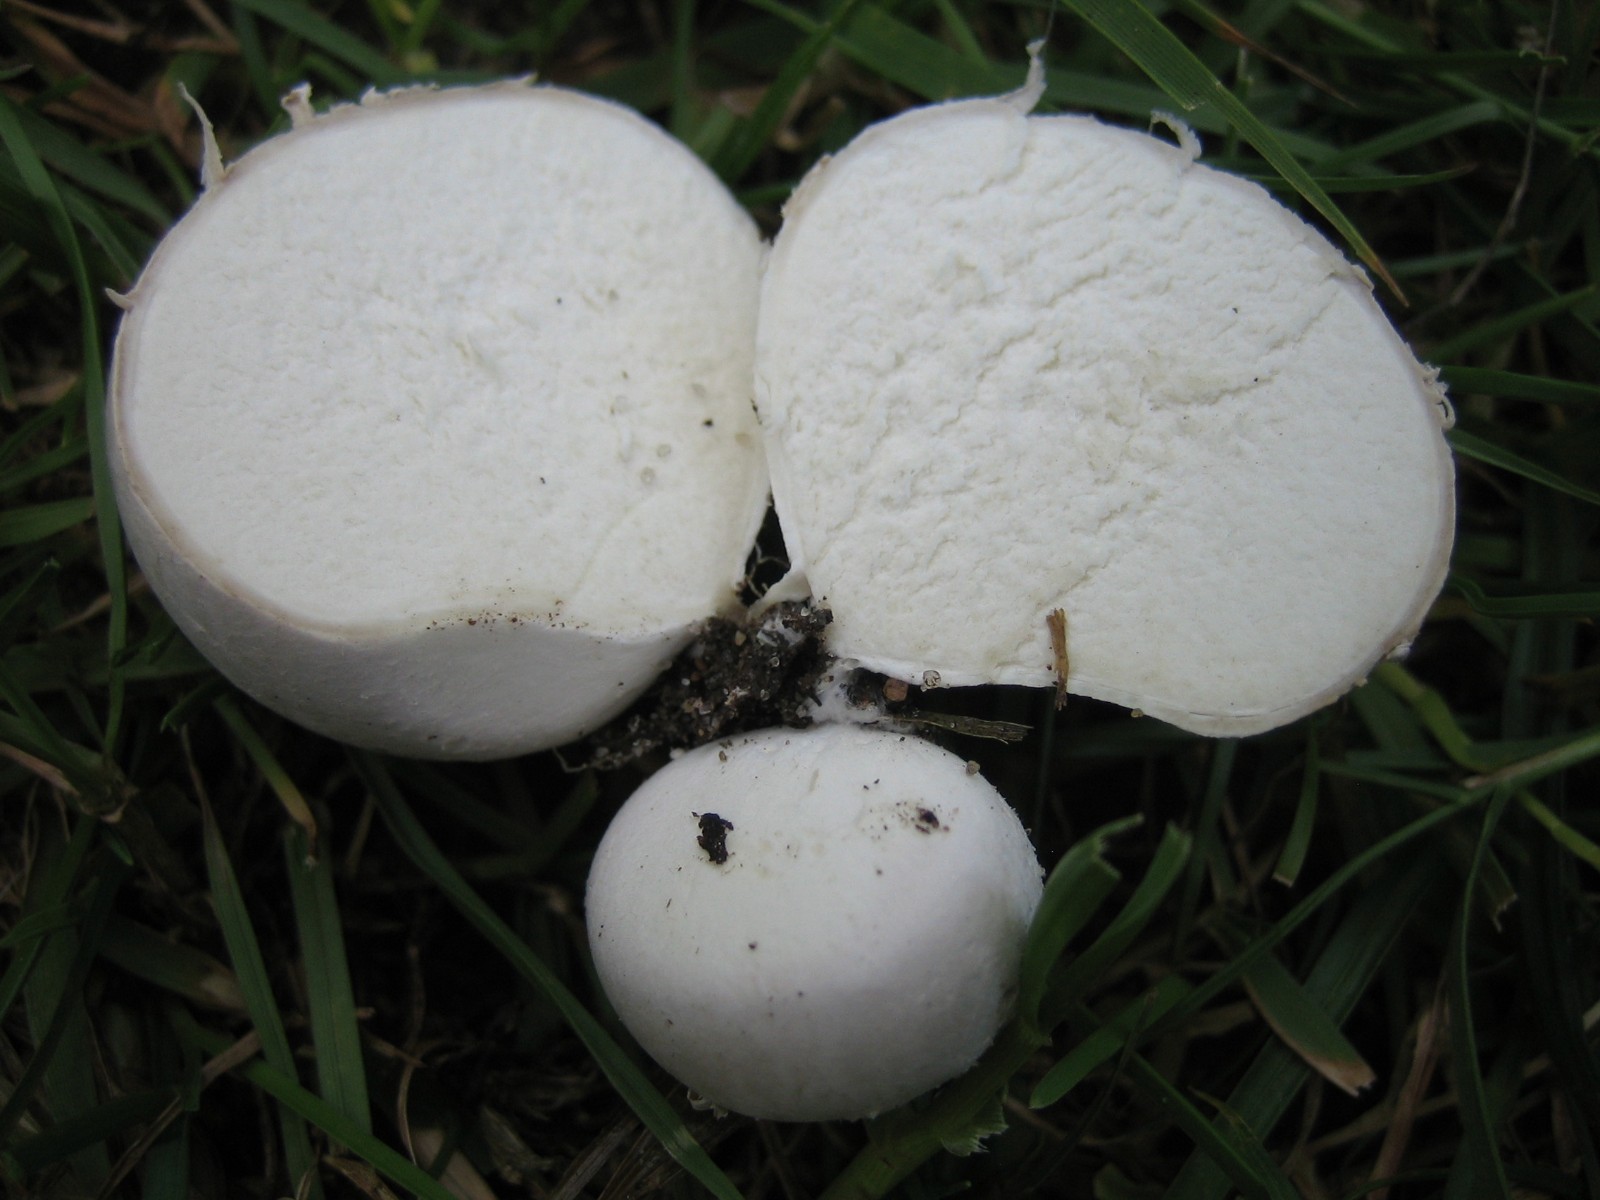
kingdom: Fungi
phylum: Basidiomycota
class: Agaricomycetes
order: Agaricales
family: Lycoperdaceae
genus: Bovista
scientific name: Bovista
